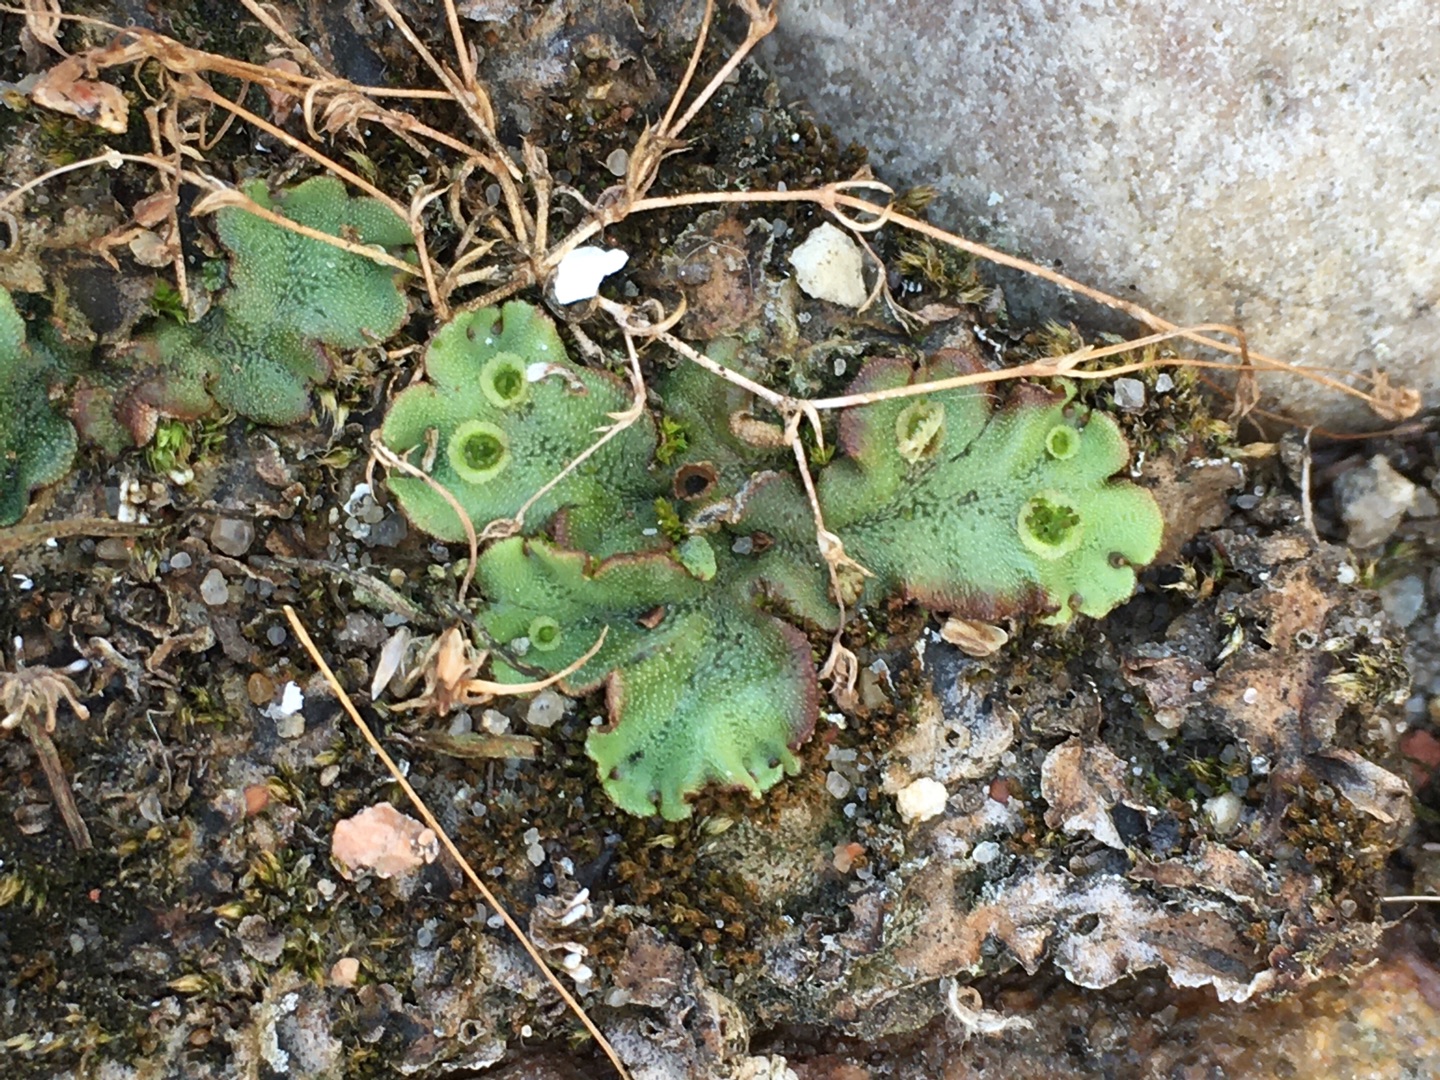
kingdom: Plantae
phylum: Marchantiophyta
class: Marchantiopsida
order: Marchantiales
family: Marchantiaceae
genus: Marchantia
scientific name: Marchantia polymorpha
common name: Almindelig lungemos (underart)
